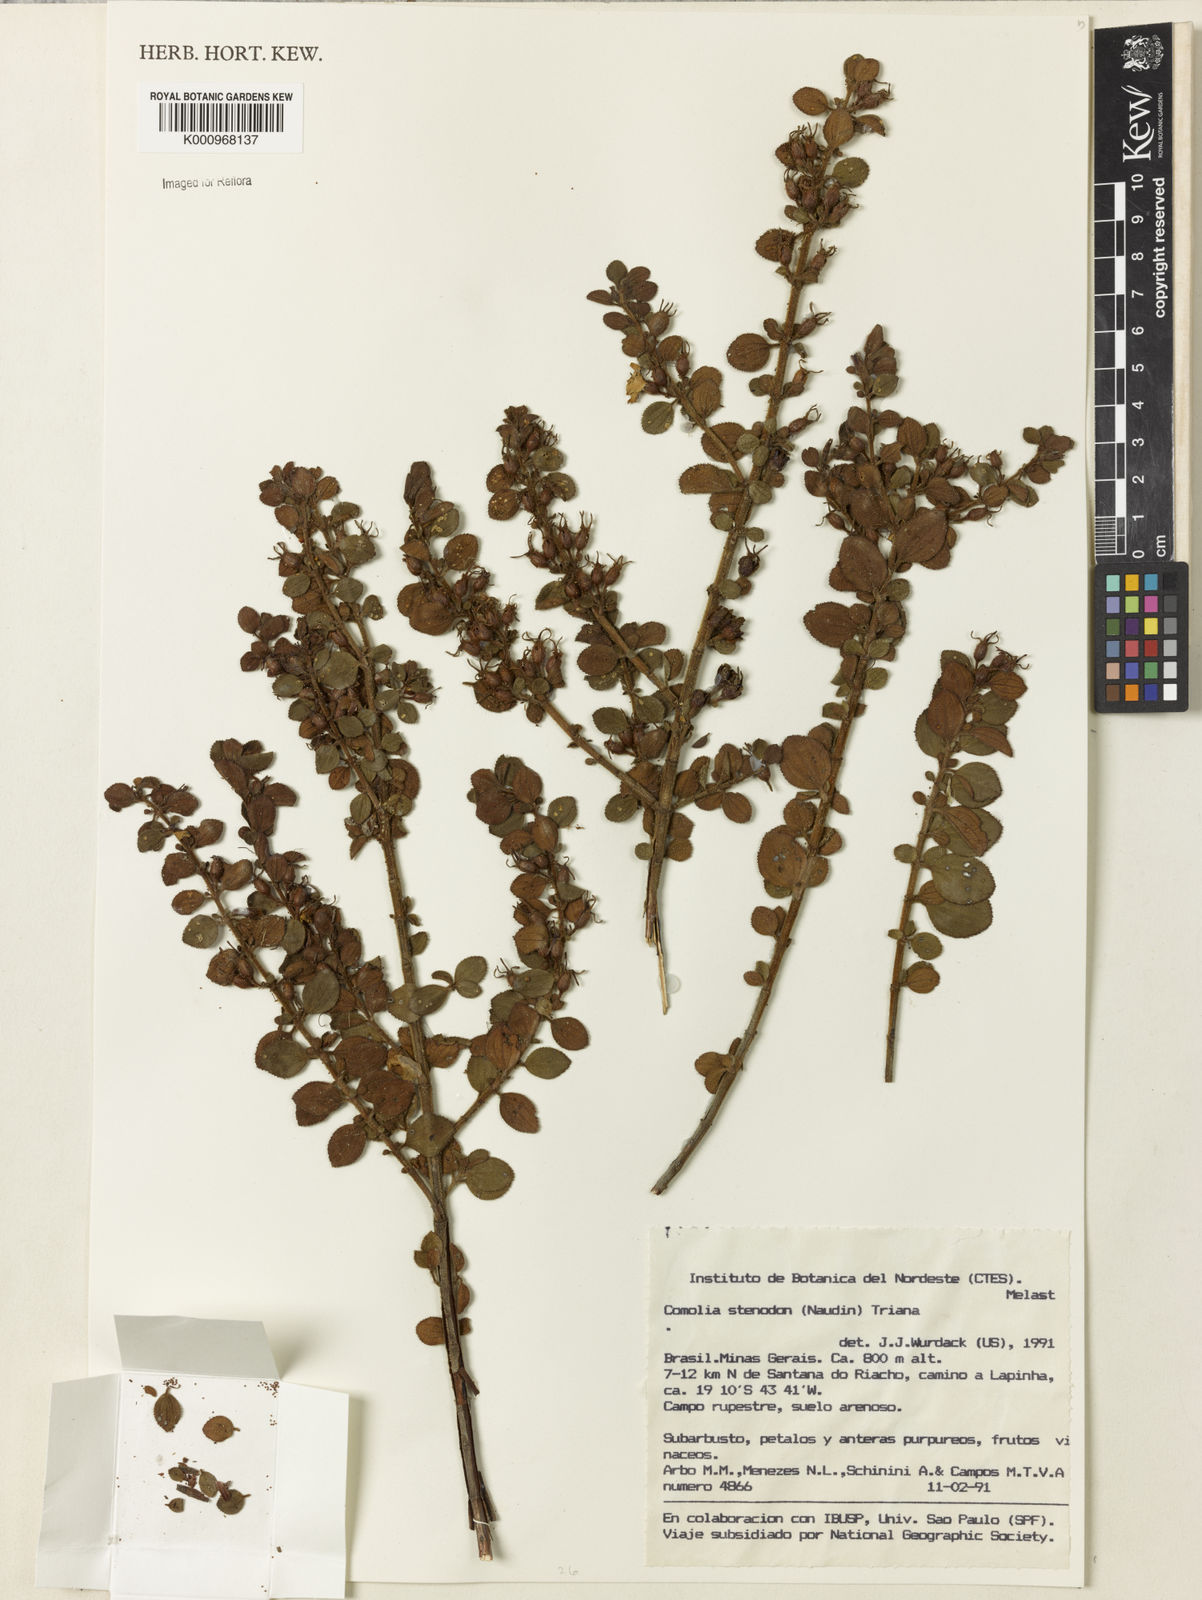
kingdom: Plantae
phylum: Tracheophyta
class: Magnoliopsida
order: Myrtales
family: Melastomataceae
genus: Fritzschia
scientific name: Fritzschia stenodon
